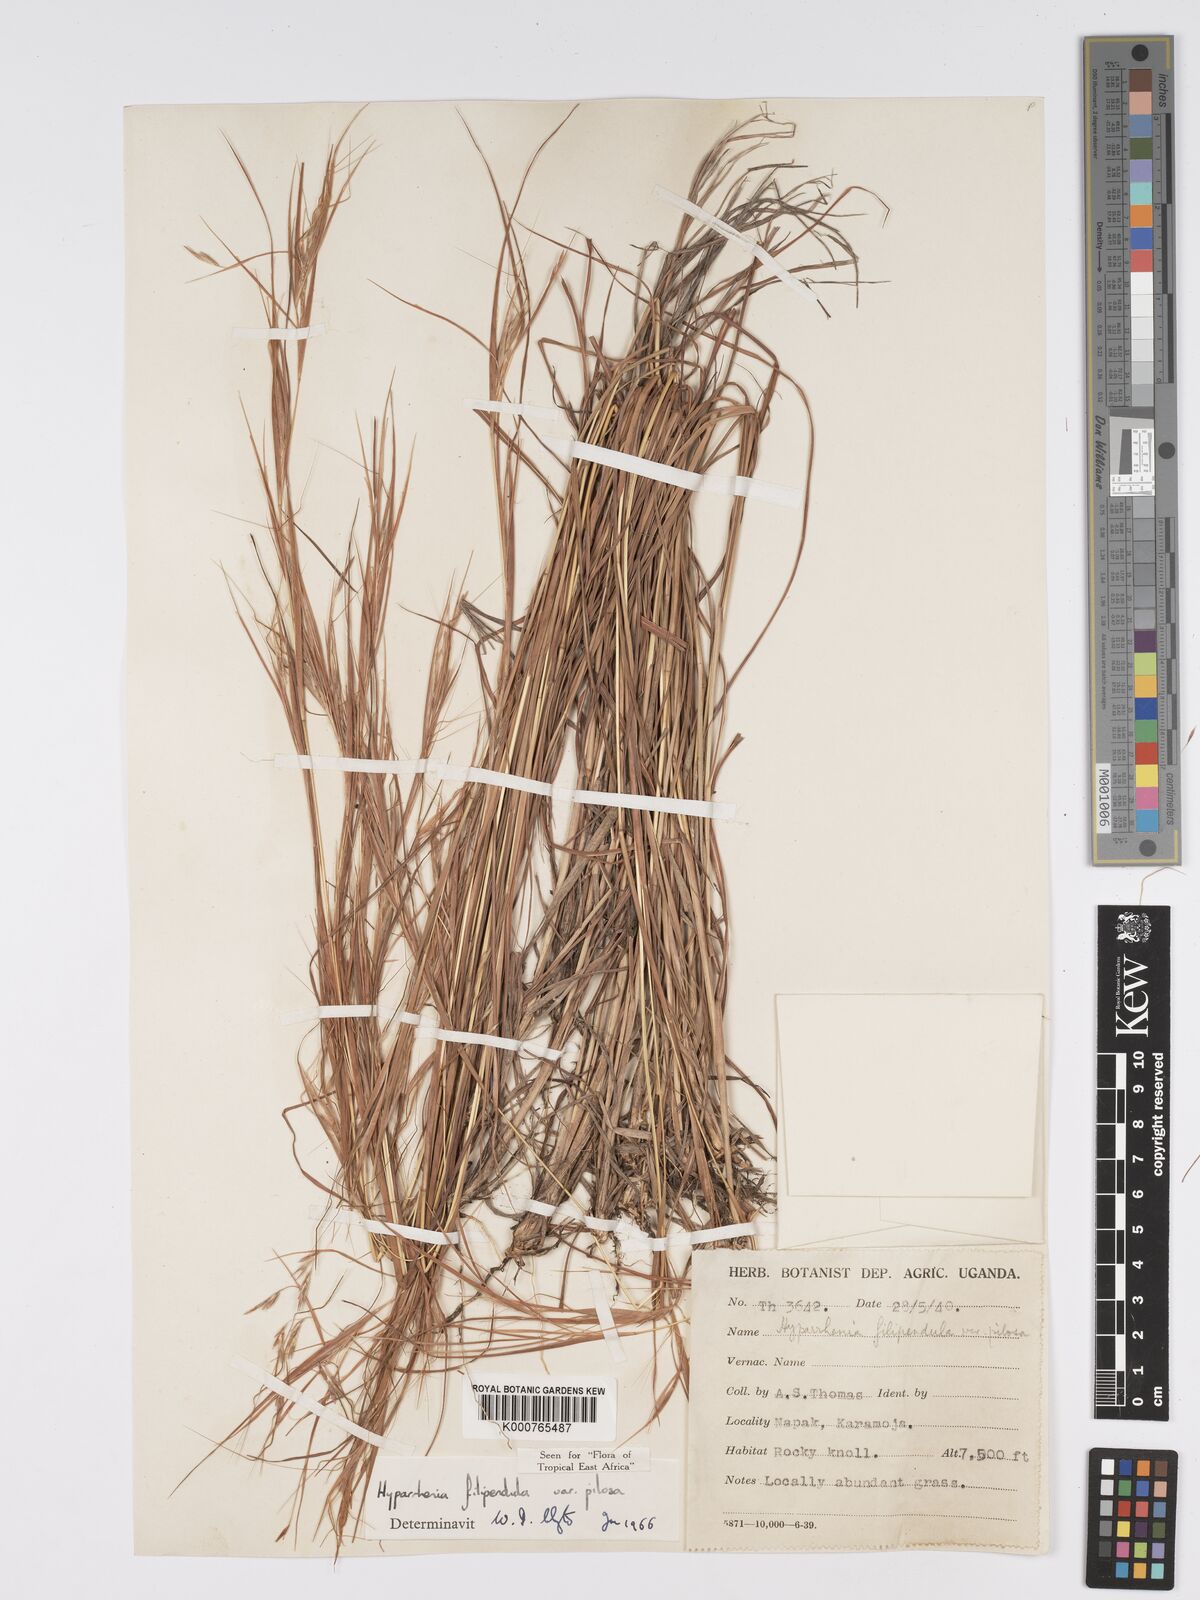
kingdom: Plantae
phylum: Tracheophyta
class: Liliopsida
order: Poales
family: Poaceae
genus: Hyparrhenia
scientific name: Hyparrhenia filipendula
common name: Tambookie grass
